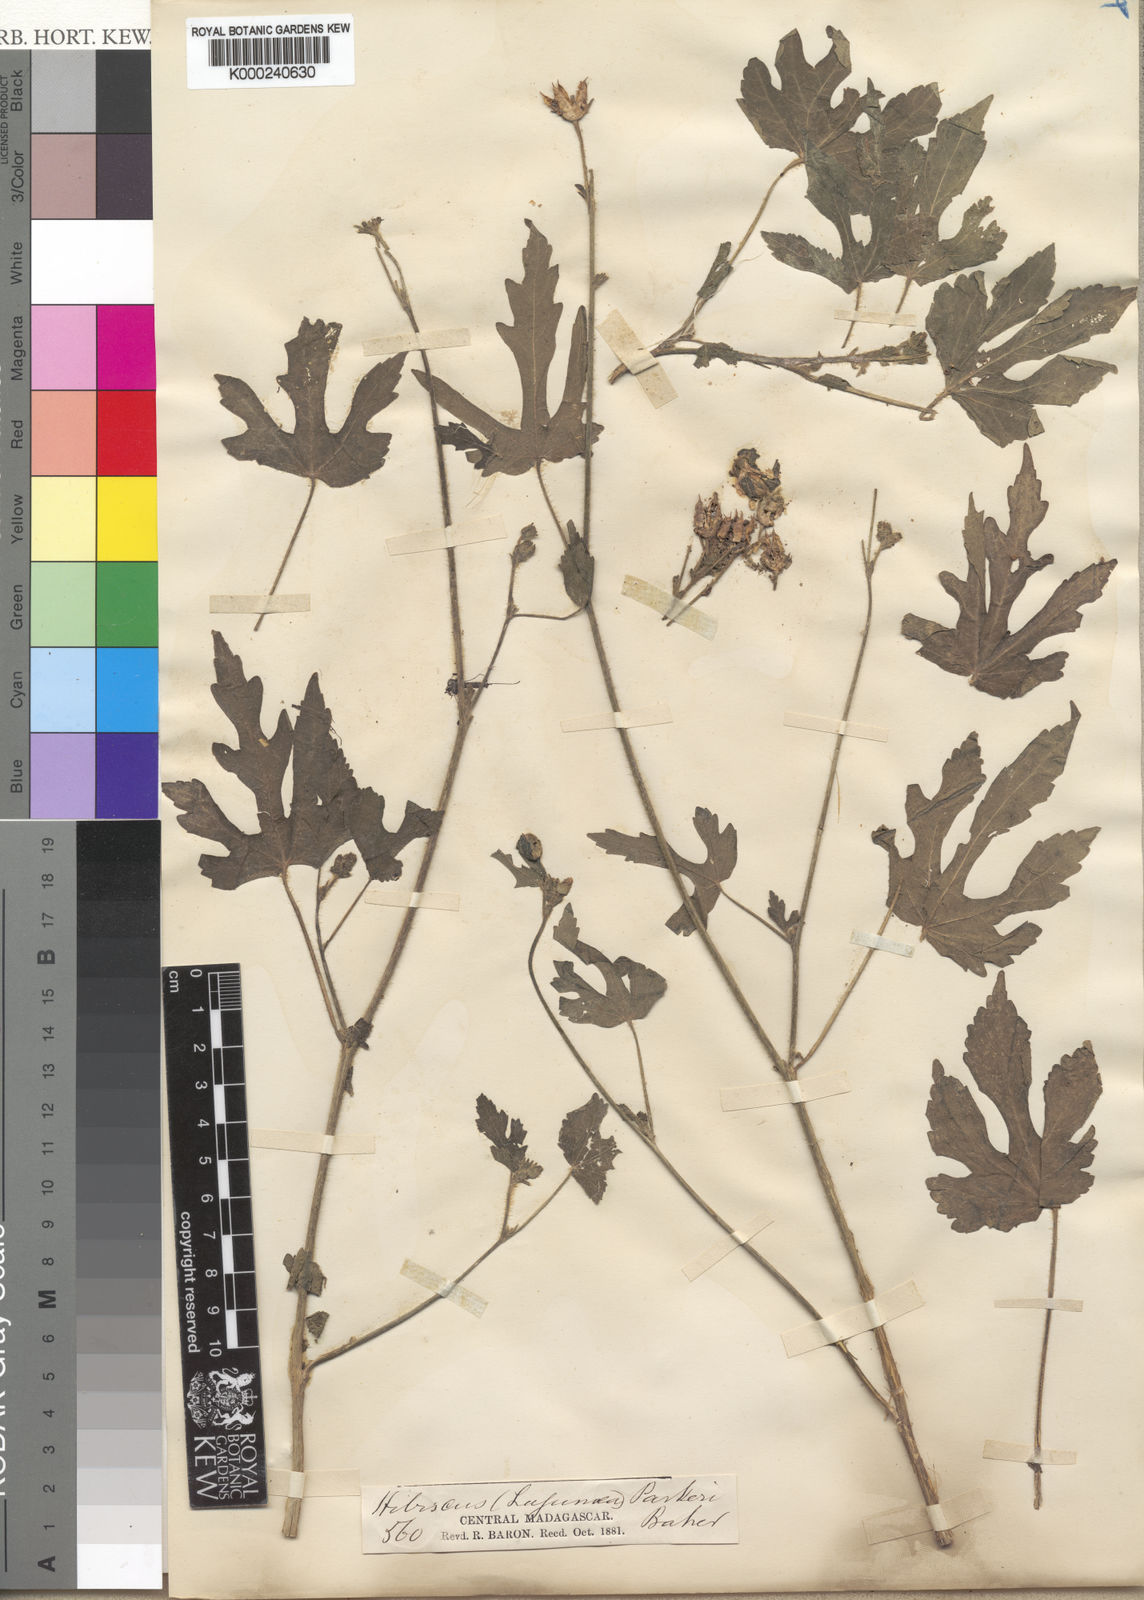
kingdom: Plantae
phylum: Tracheophyta
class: Magnoliopsida
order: Malvales
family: Malvaceae
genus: Hibiscus
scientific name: Hibiscus lobatus
